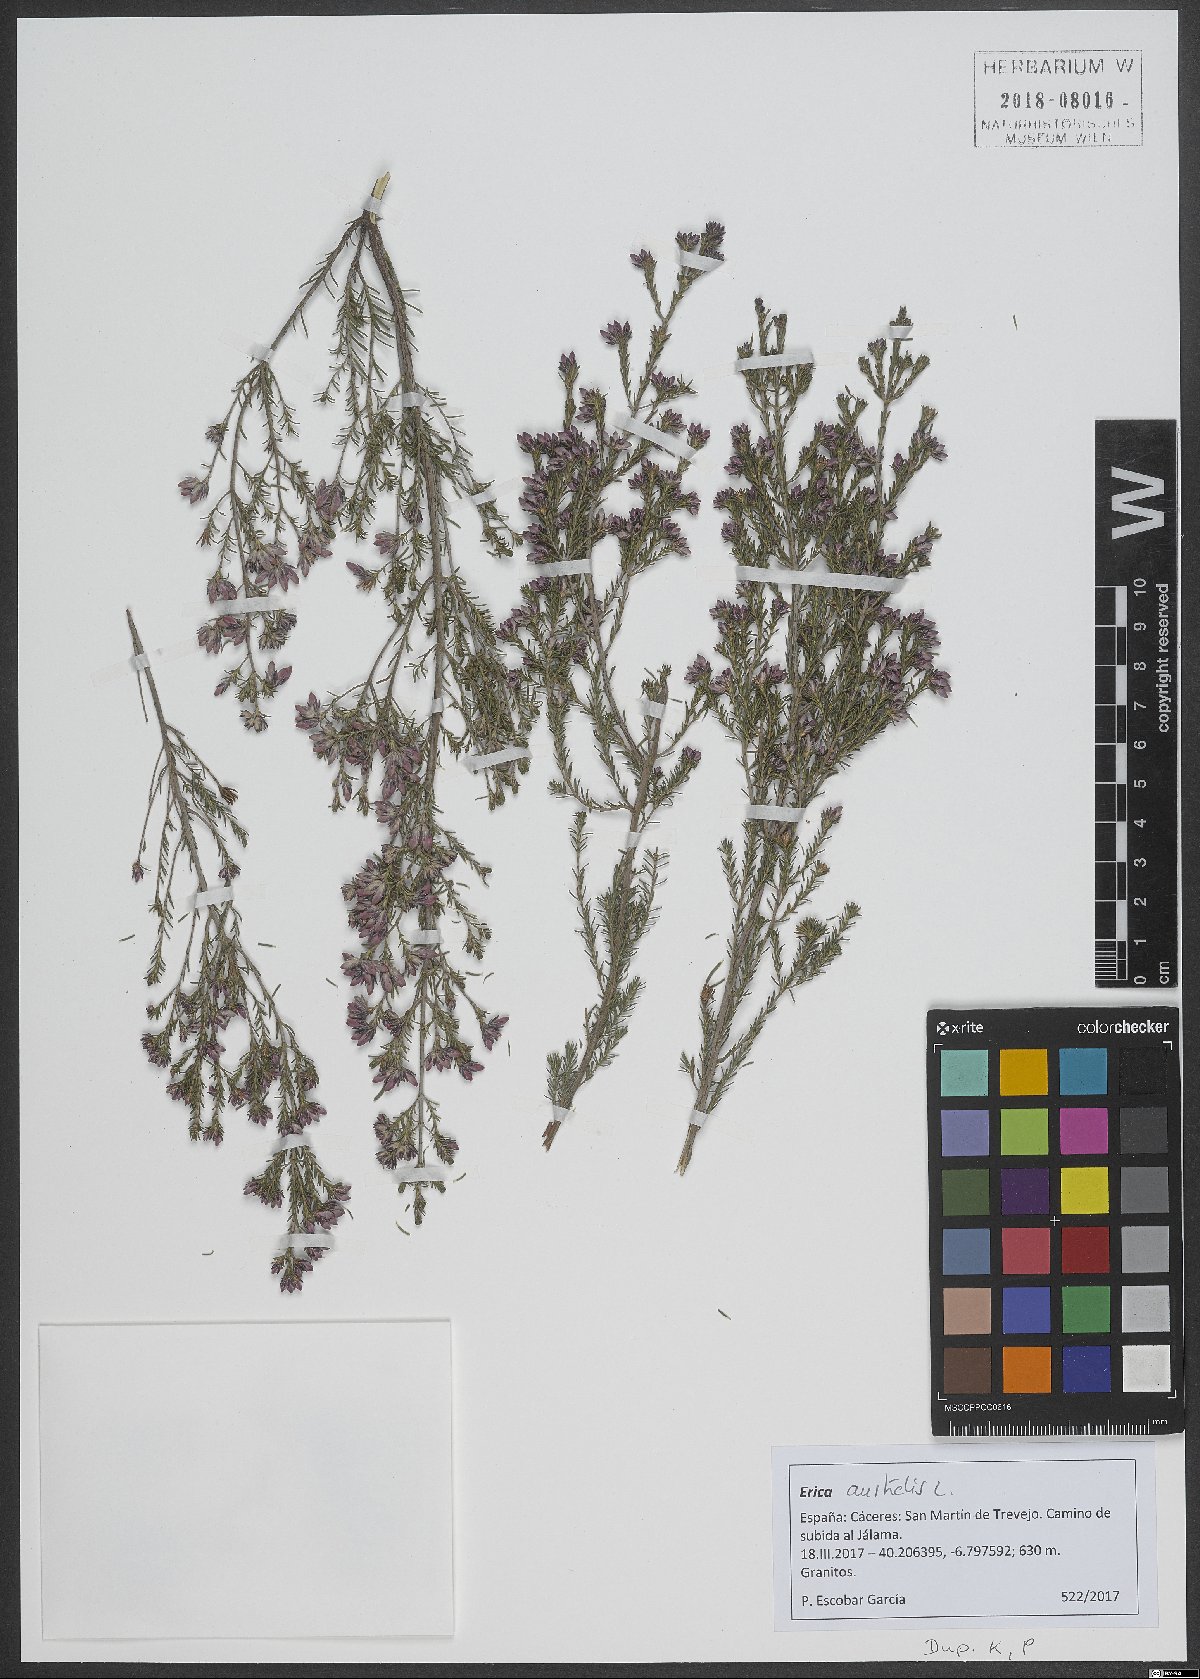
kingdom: Plantae
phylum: Tracheophyta
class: Magnoliopsida
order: Ericales
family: Ericaceae
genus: Erica
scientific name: Erica australis
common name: Spanish heath
